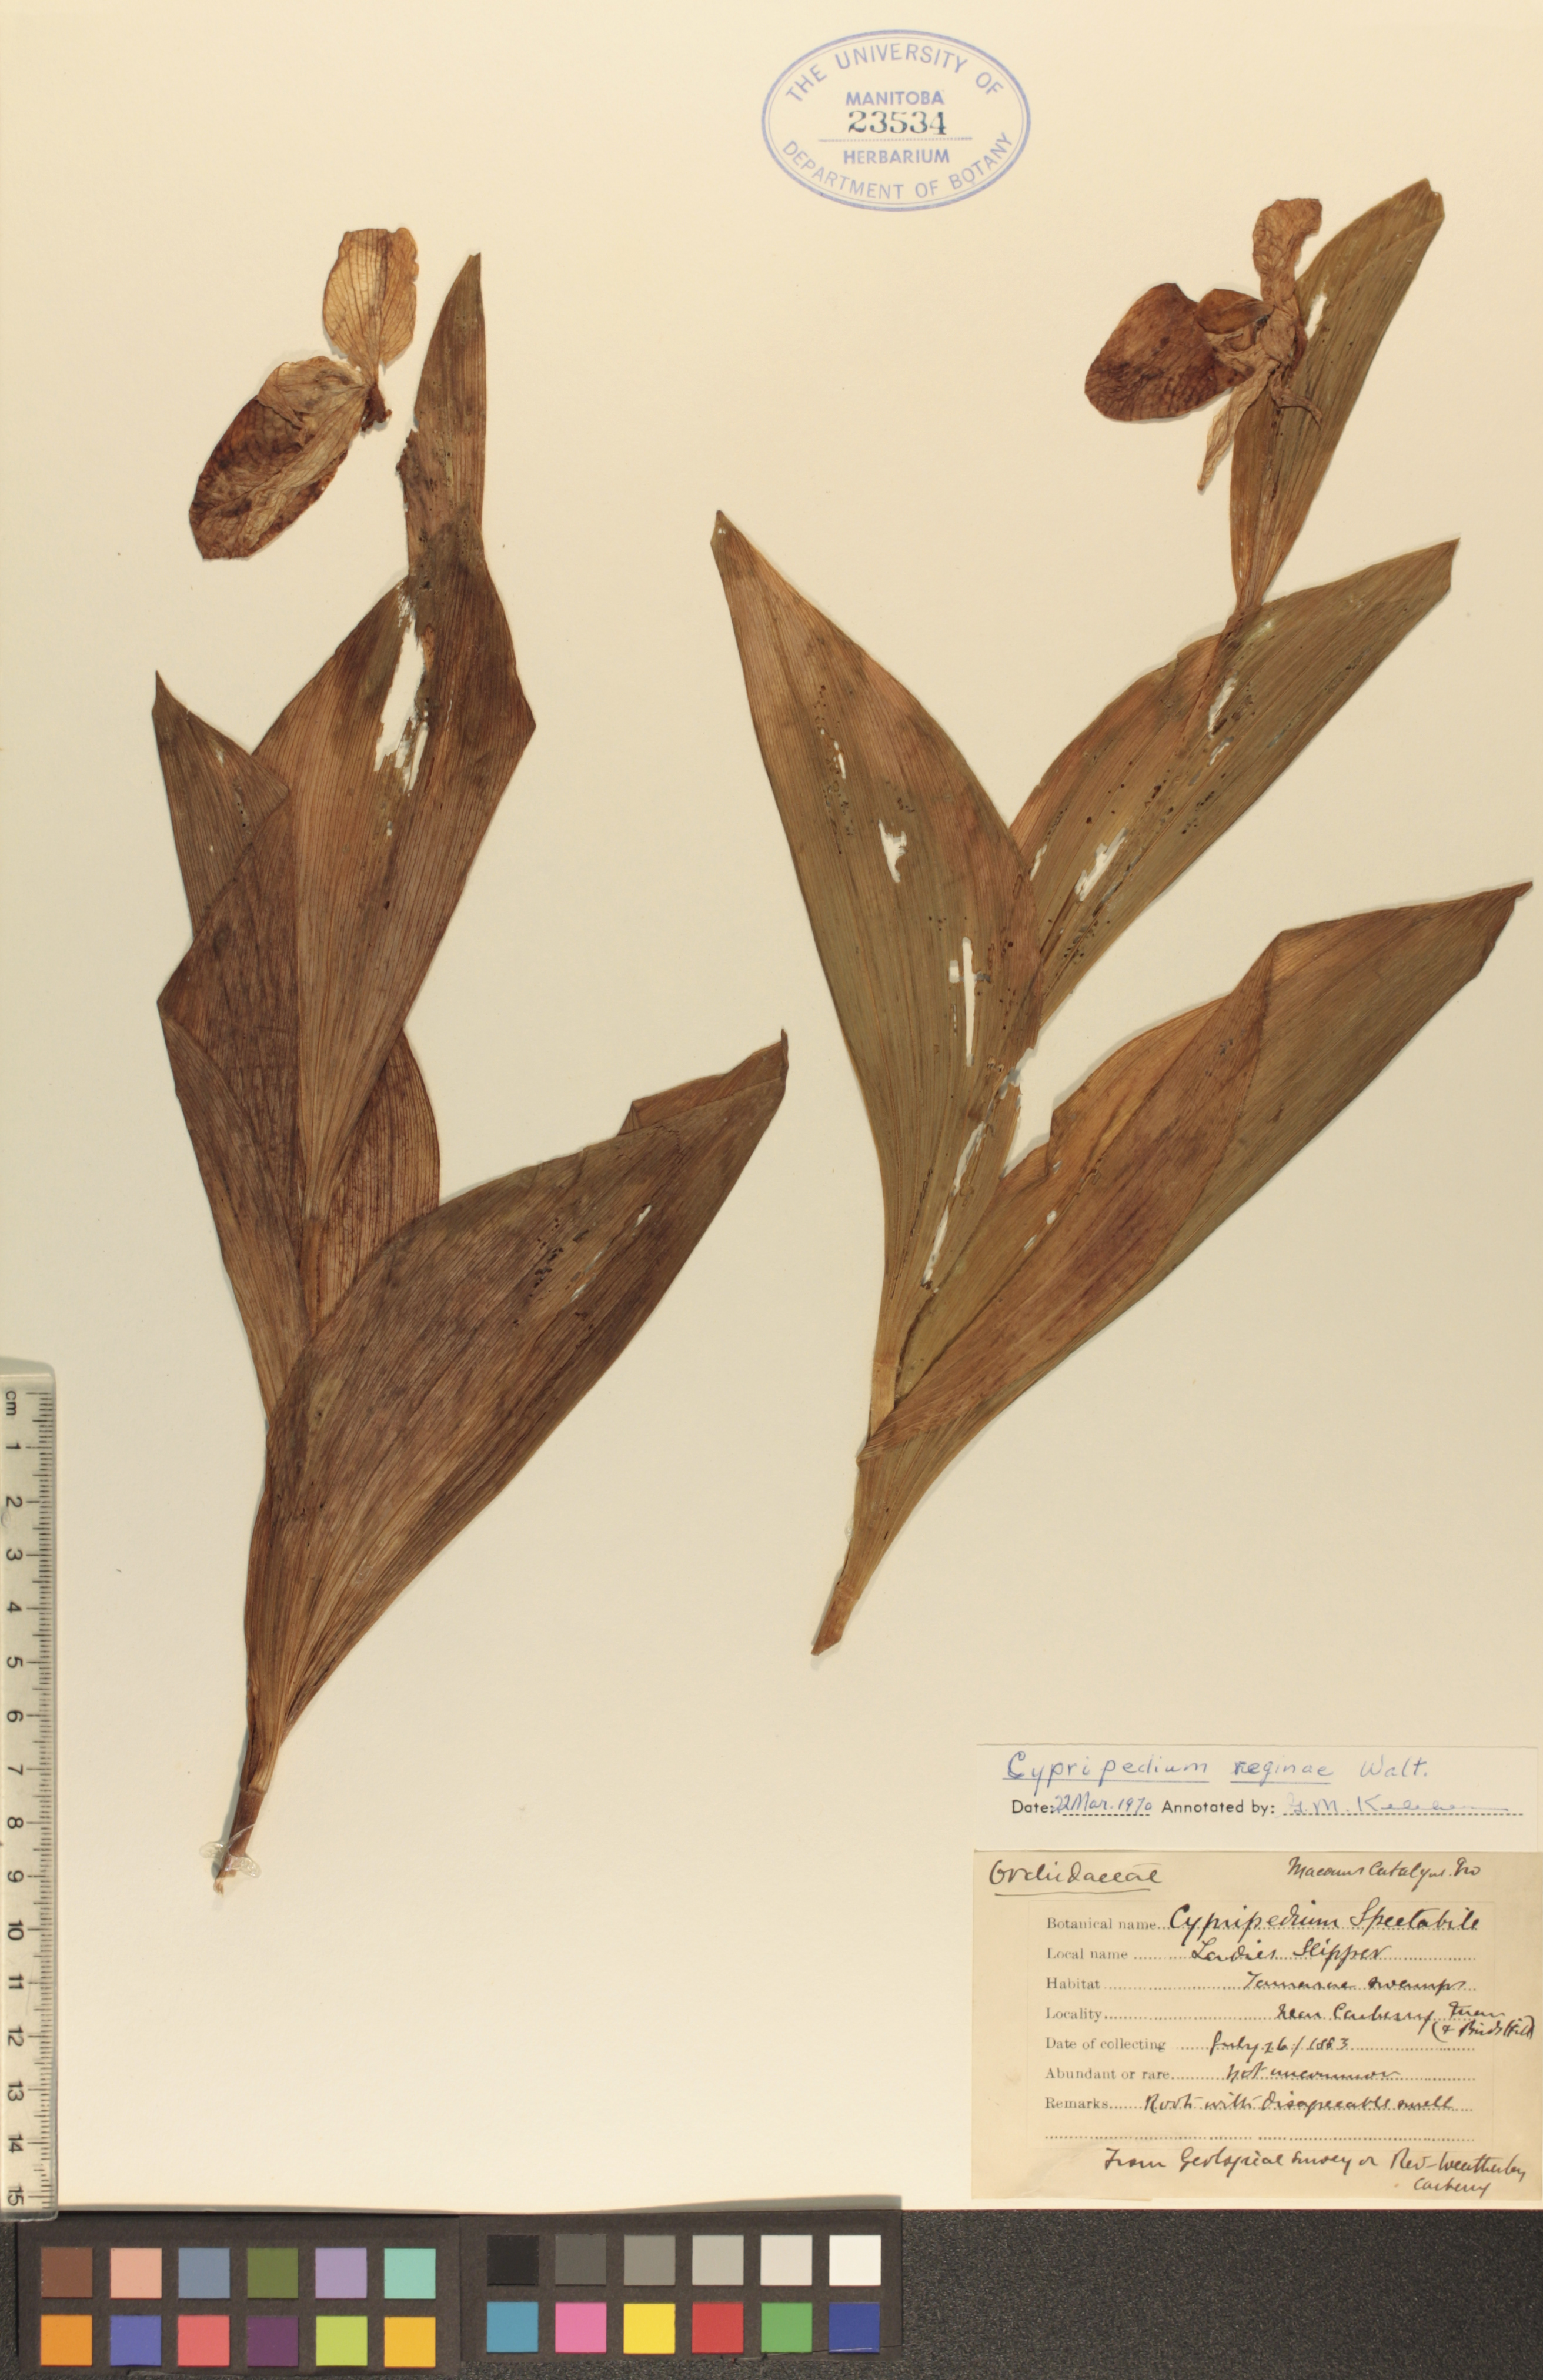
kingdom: Plantae
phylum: Tracheophyta
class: Liliopsida
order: Asparagales
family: Orchidaceae
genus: Cypripedium
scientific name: Cypripedium reginae
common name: Queen lady's-slipper
